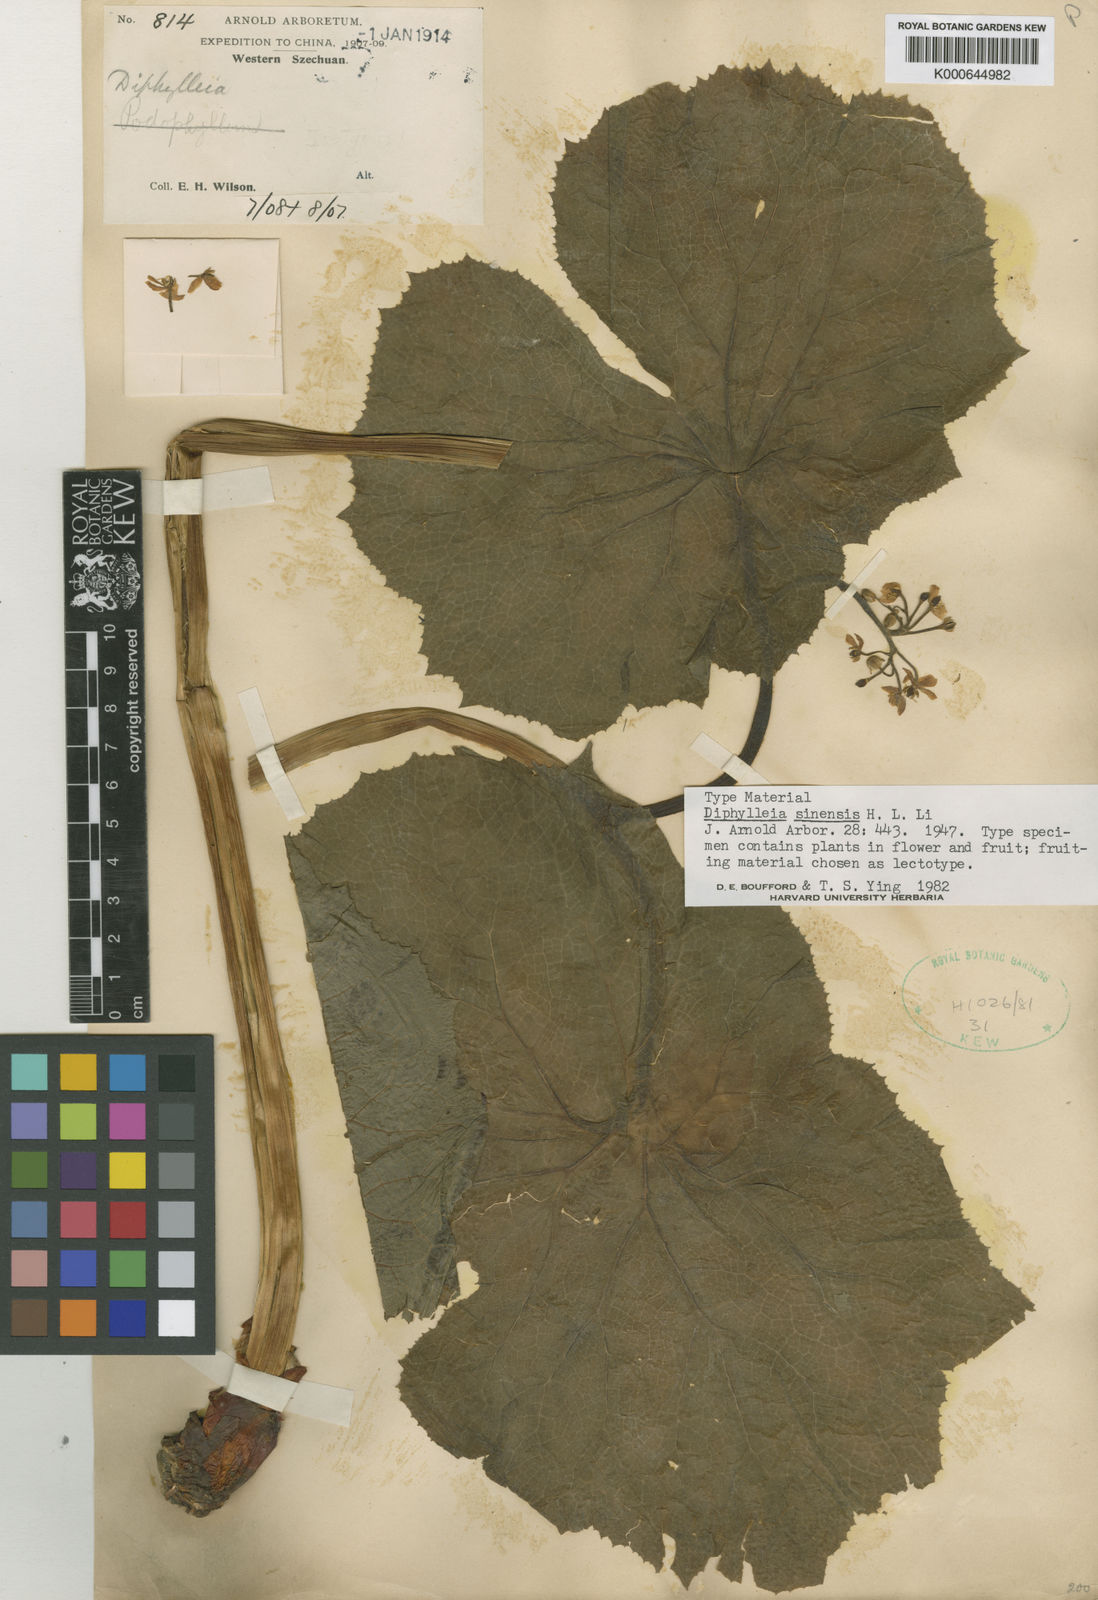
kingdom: Plantae
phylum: Tracheophyta
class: Magnoliopsida
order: Ranunculales
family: Berberidaceae
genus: Diphylleia
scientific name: Diphylleia sinensis
